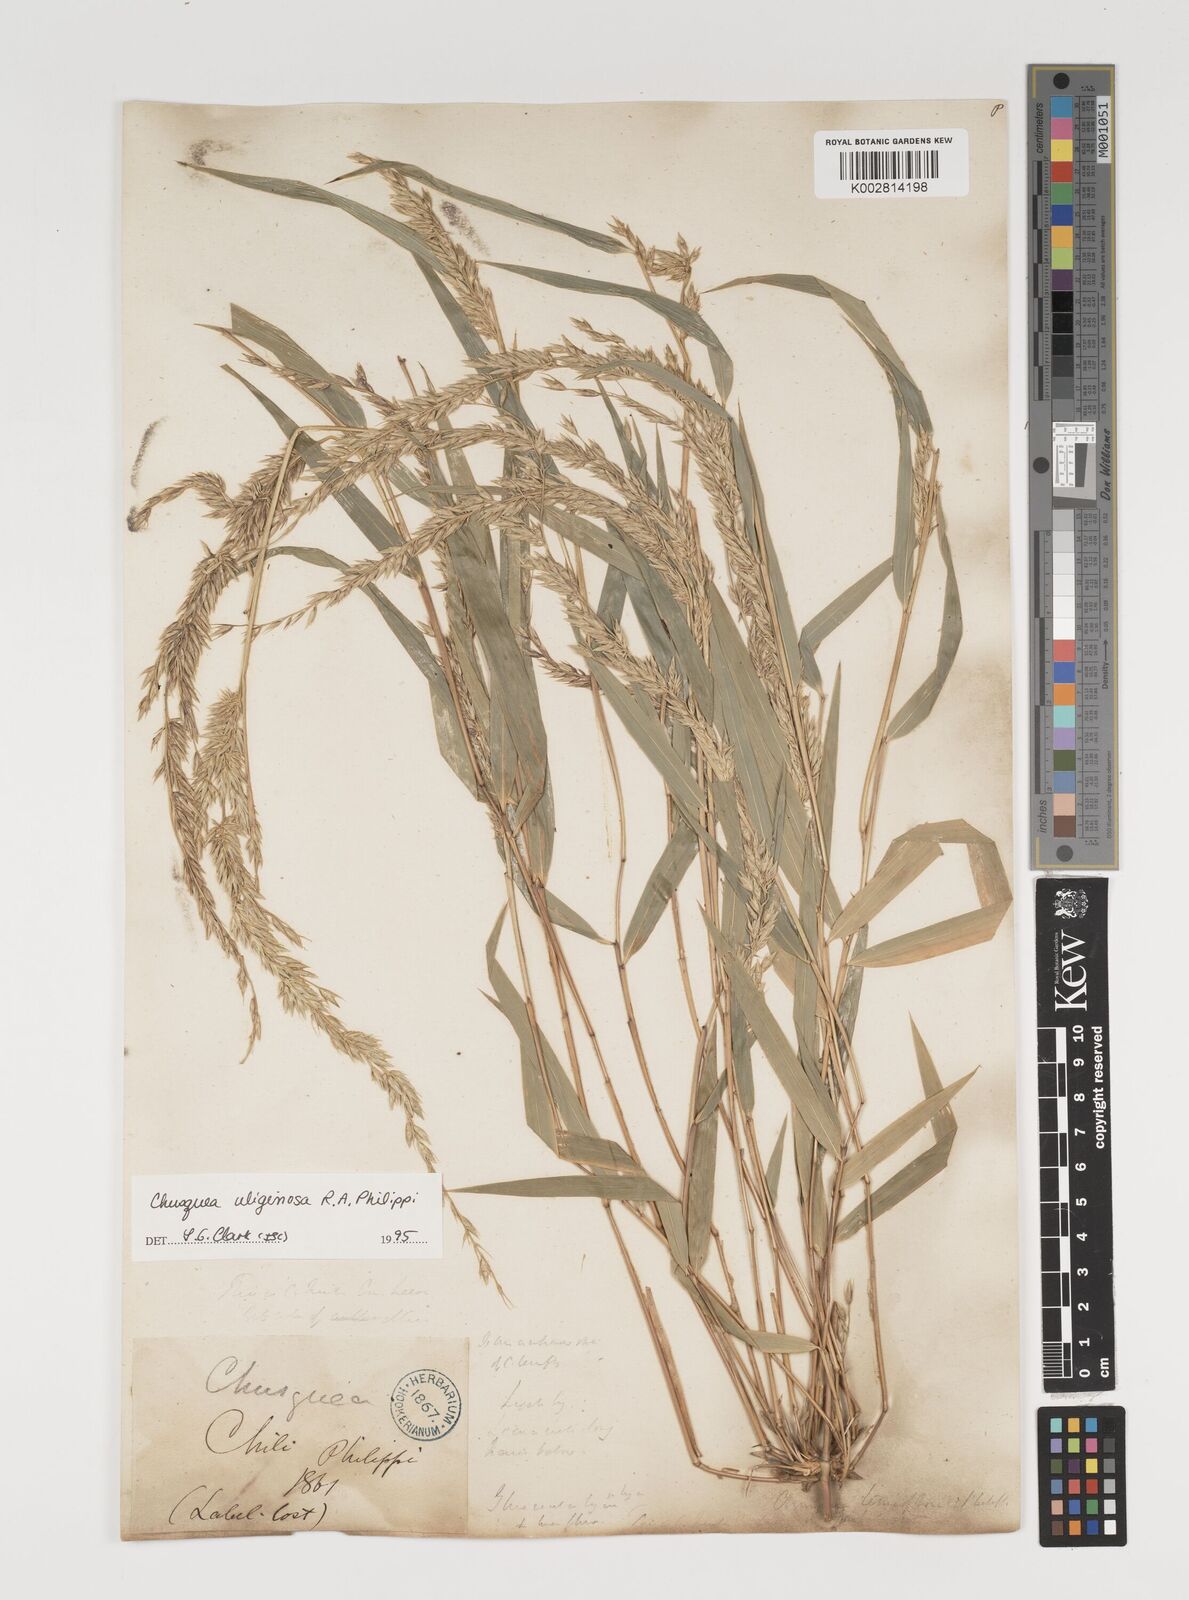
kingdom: Plantae
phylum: Tracheophyta
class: Liliopsida
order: Poales
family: Poaceae
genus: Chusquea
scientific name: Chusquea uliginosa
